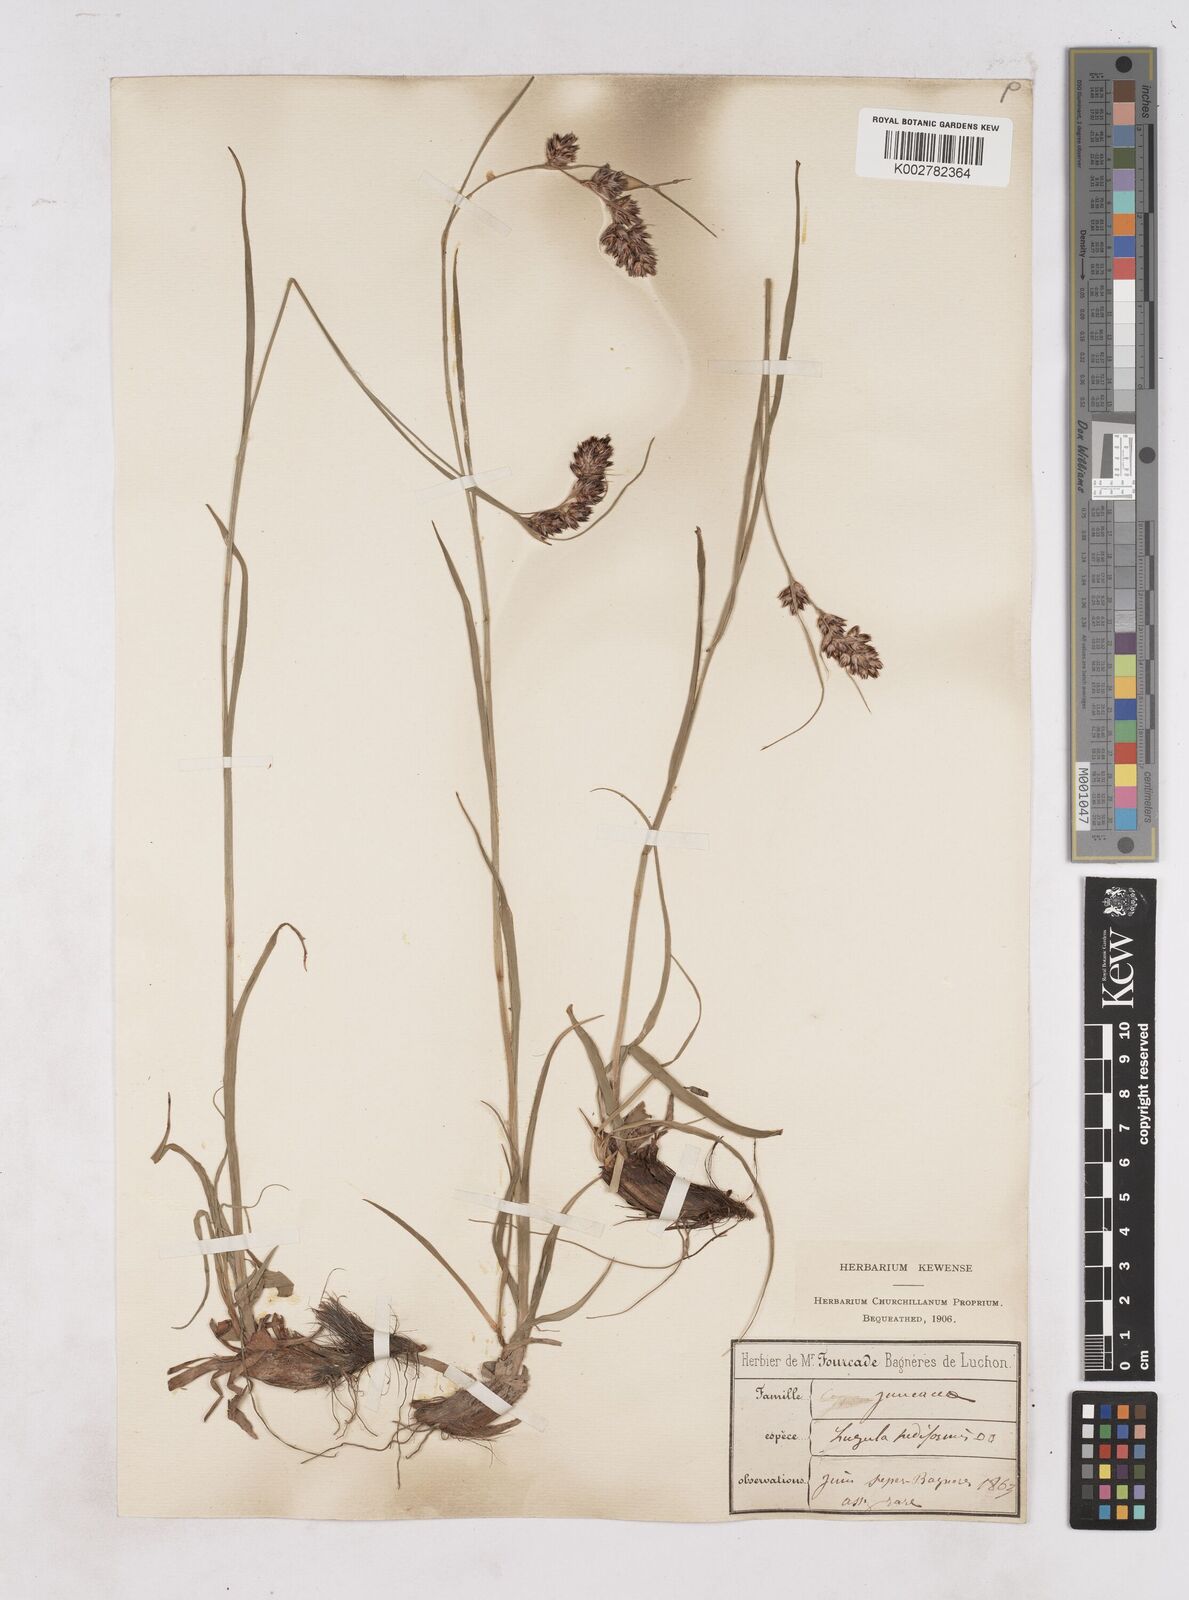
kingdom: Plantae
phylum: Tracheophyta
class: Liliopsida
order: Poales
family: Juncaceae
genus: Luzula
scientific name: Luzula pediformis
